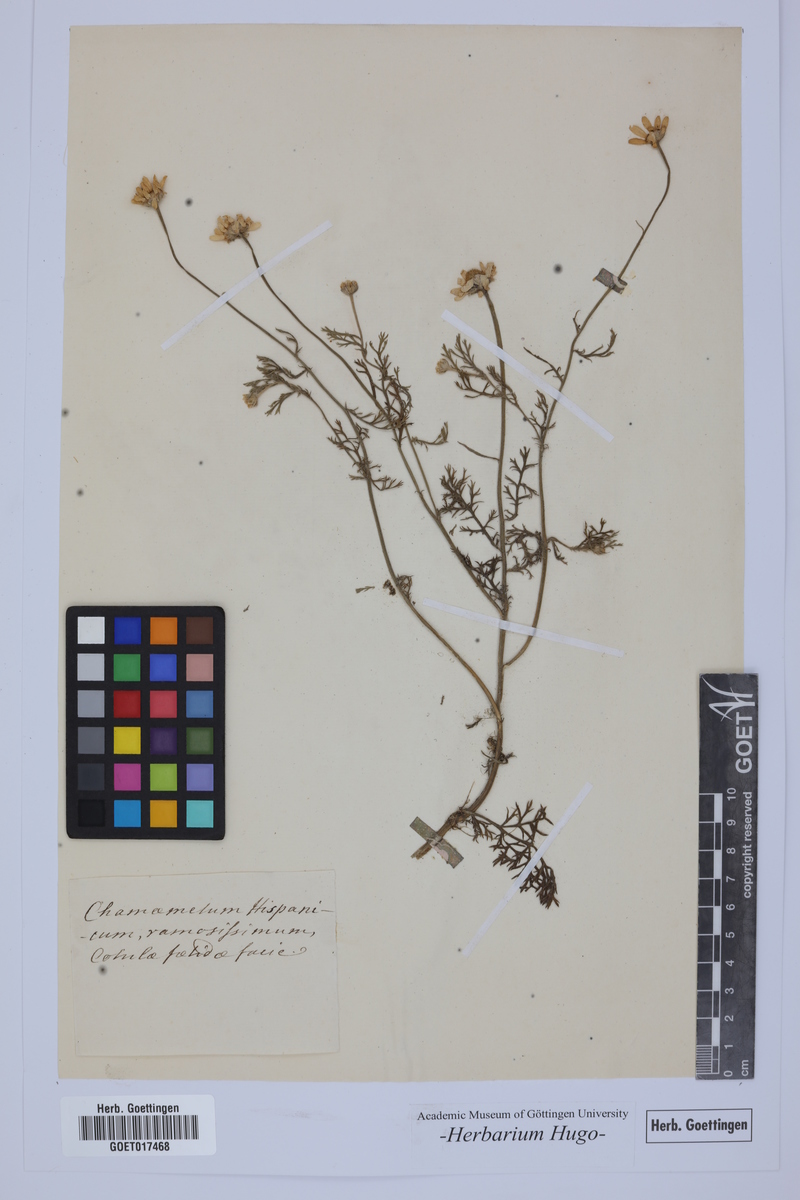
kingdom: Plantae
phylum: Tracheophyta
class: Magnoliopsida
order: Asterales
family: Asteraceae
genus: Chamaemelum
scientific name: Chamaemelum
